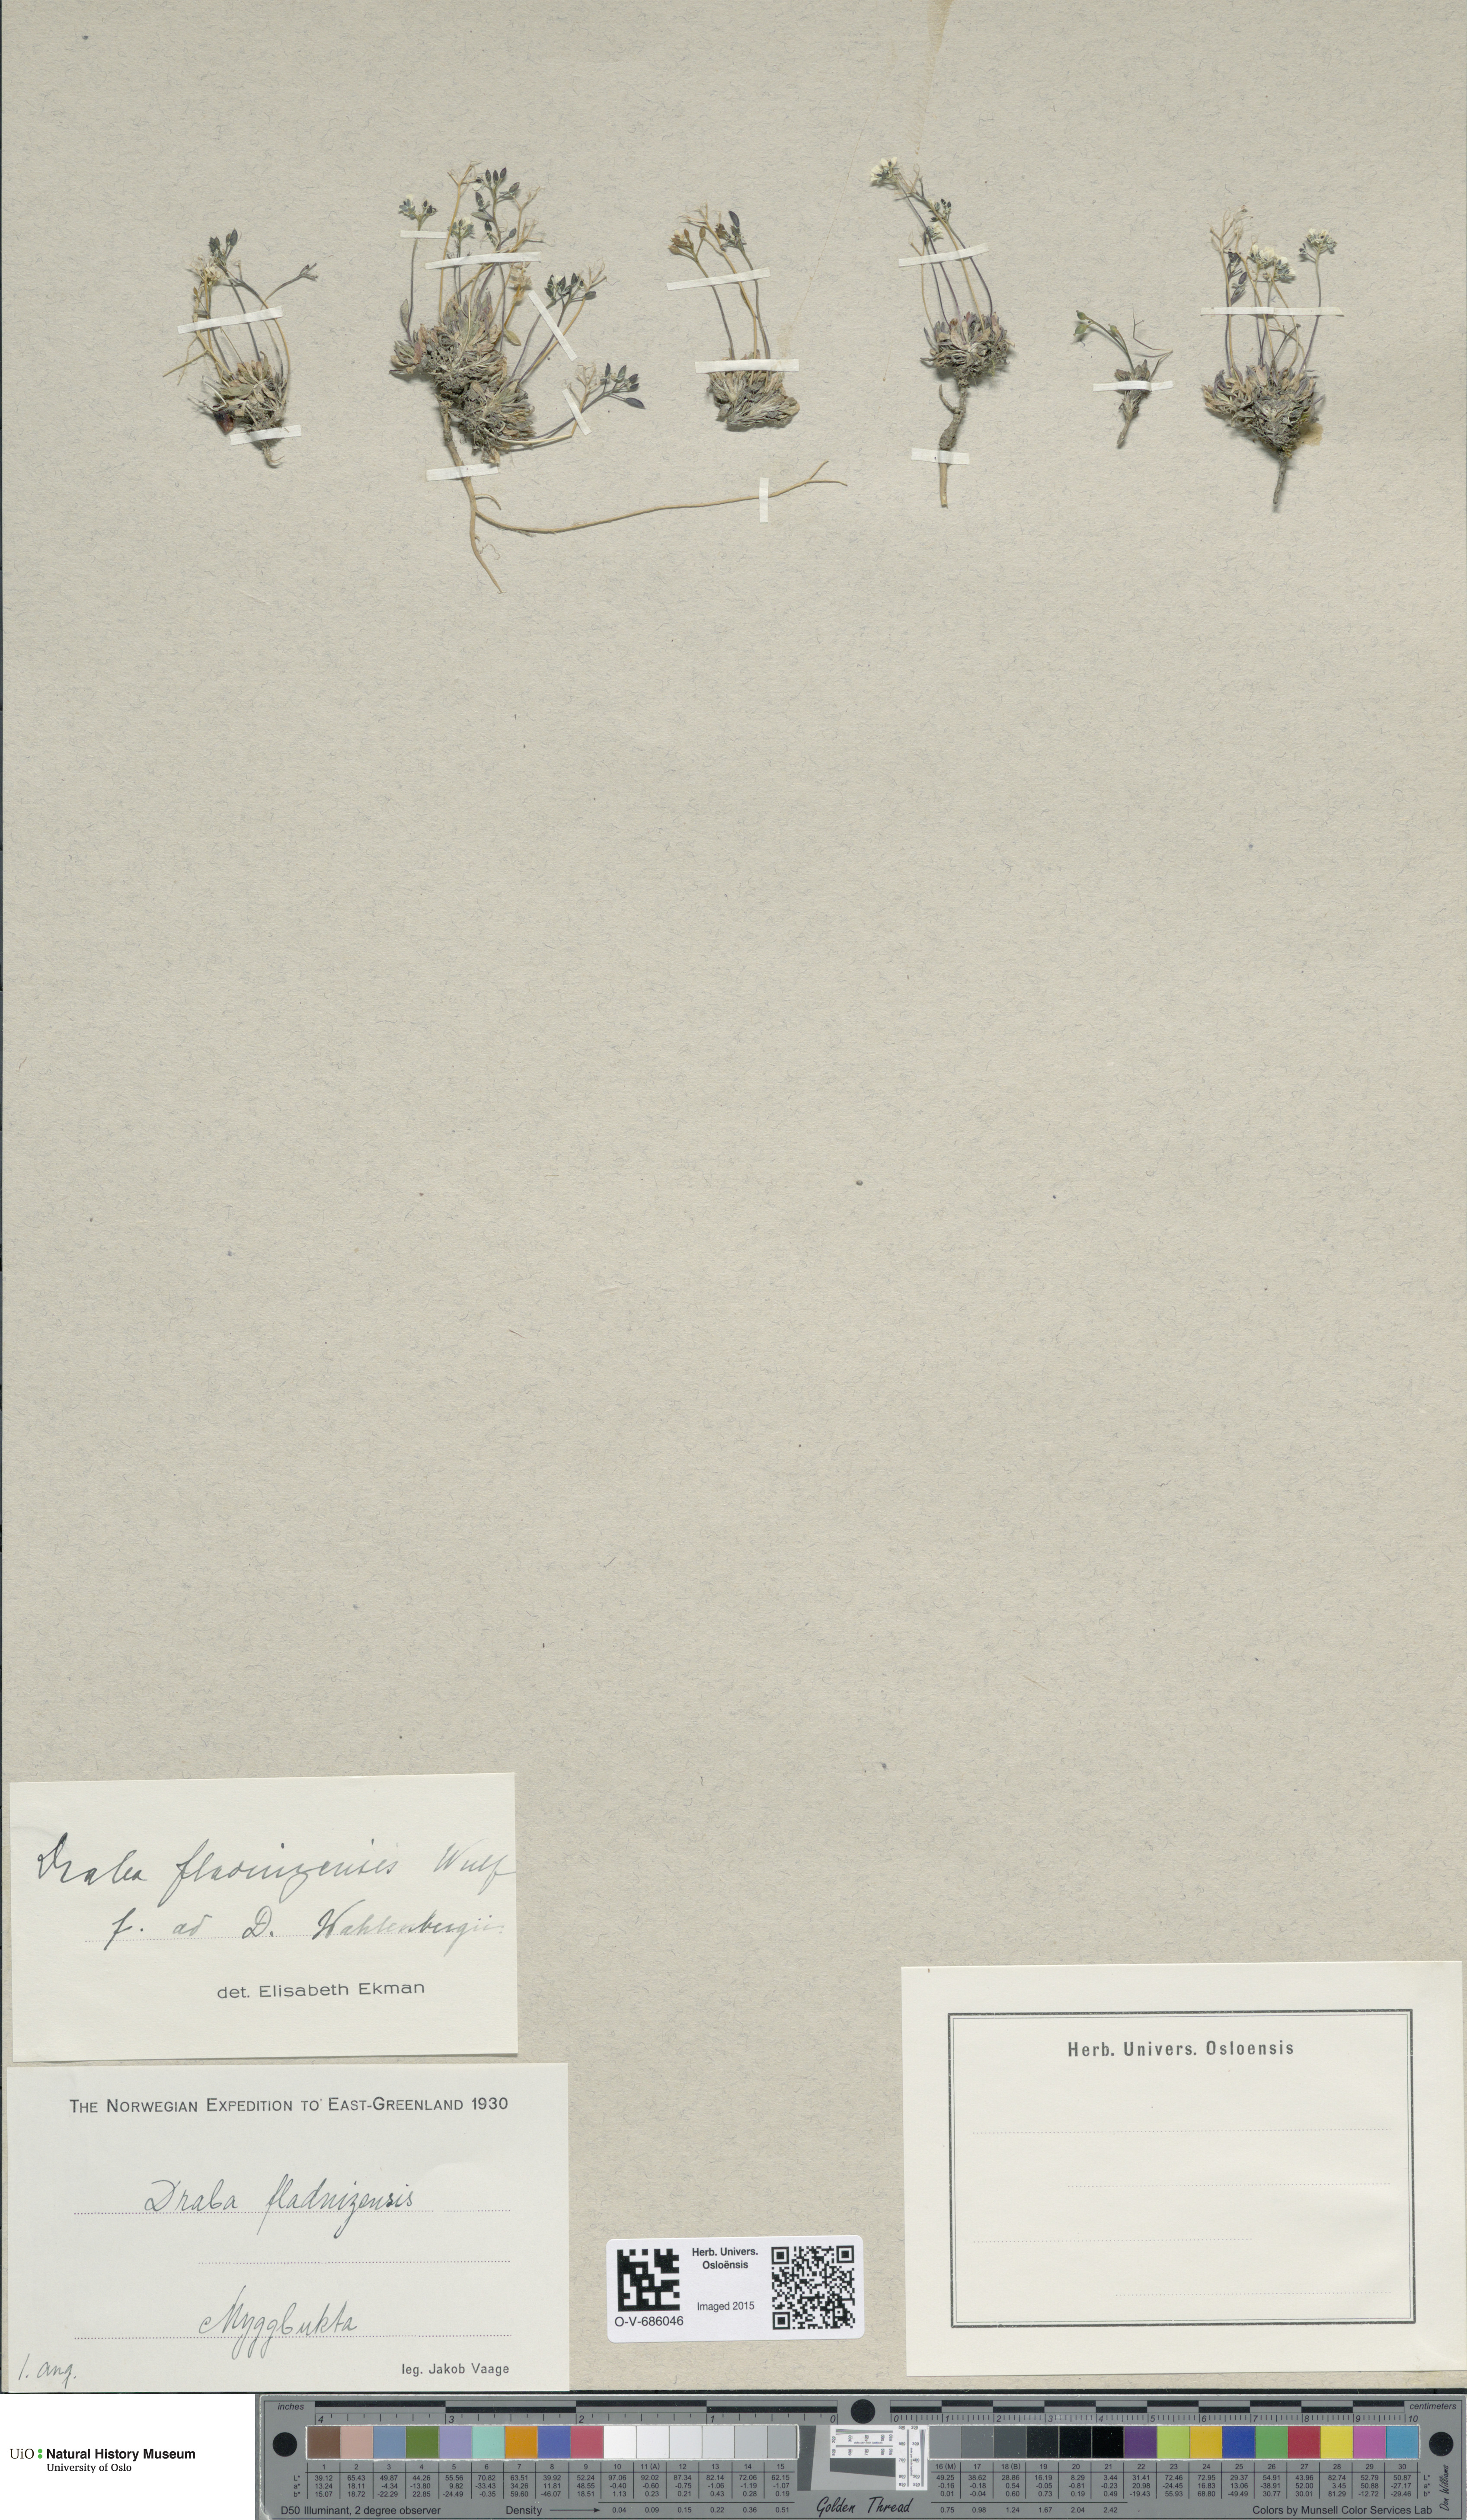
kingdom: Plantae
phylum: Tracheophyta
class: Magnoliopsida
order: Brassicales
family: Brassicaceae
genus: Draba
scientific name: Draba fladnizensis
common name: Austrian draba
